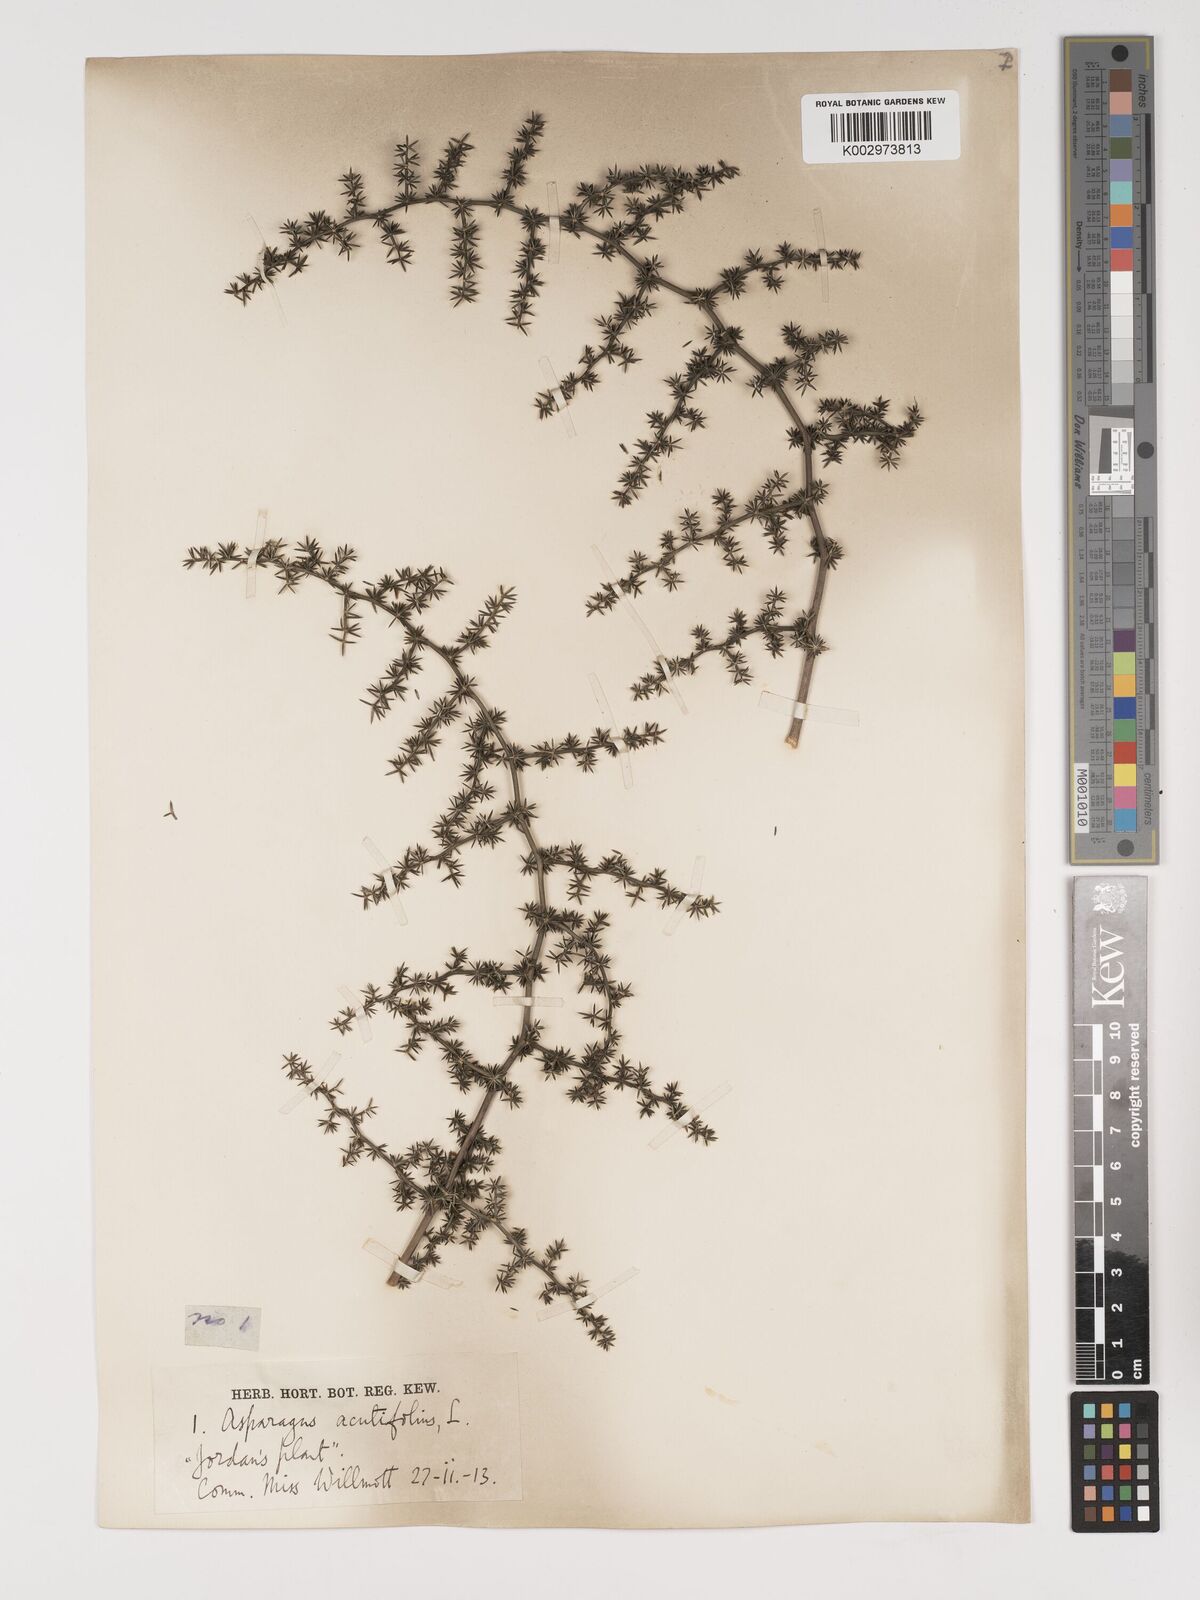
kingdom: Plantae
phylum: Tracheophyta
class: Liliopsida
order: Asparagales
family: Asparagaceae
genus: Asparagus
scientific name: Asparagus acutifolius
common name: Wild asparagus
